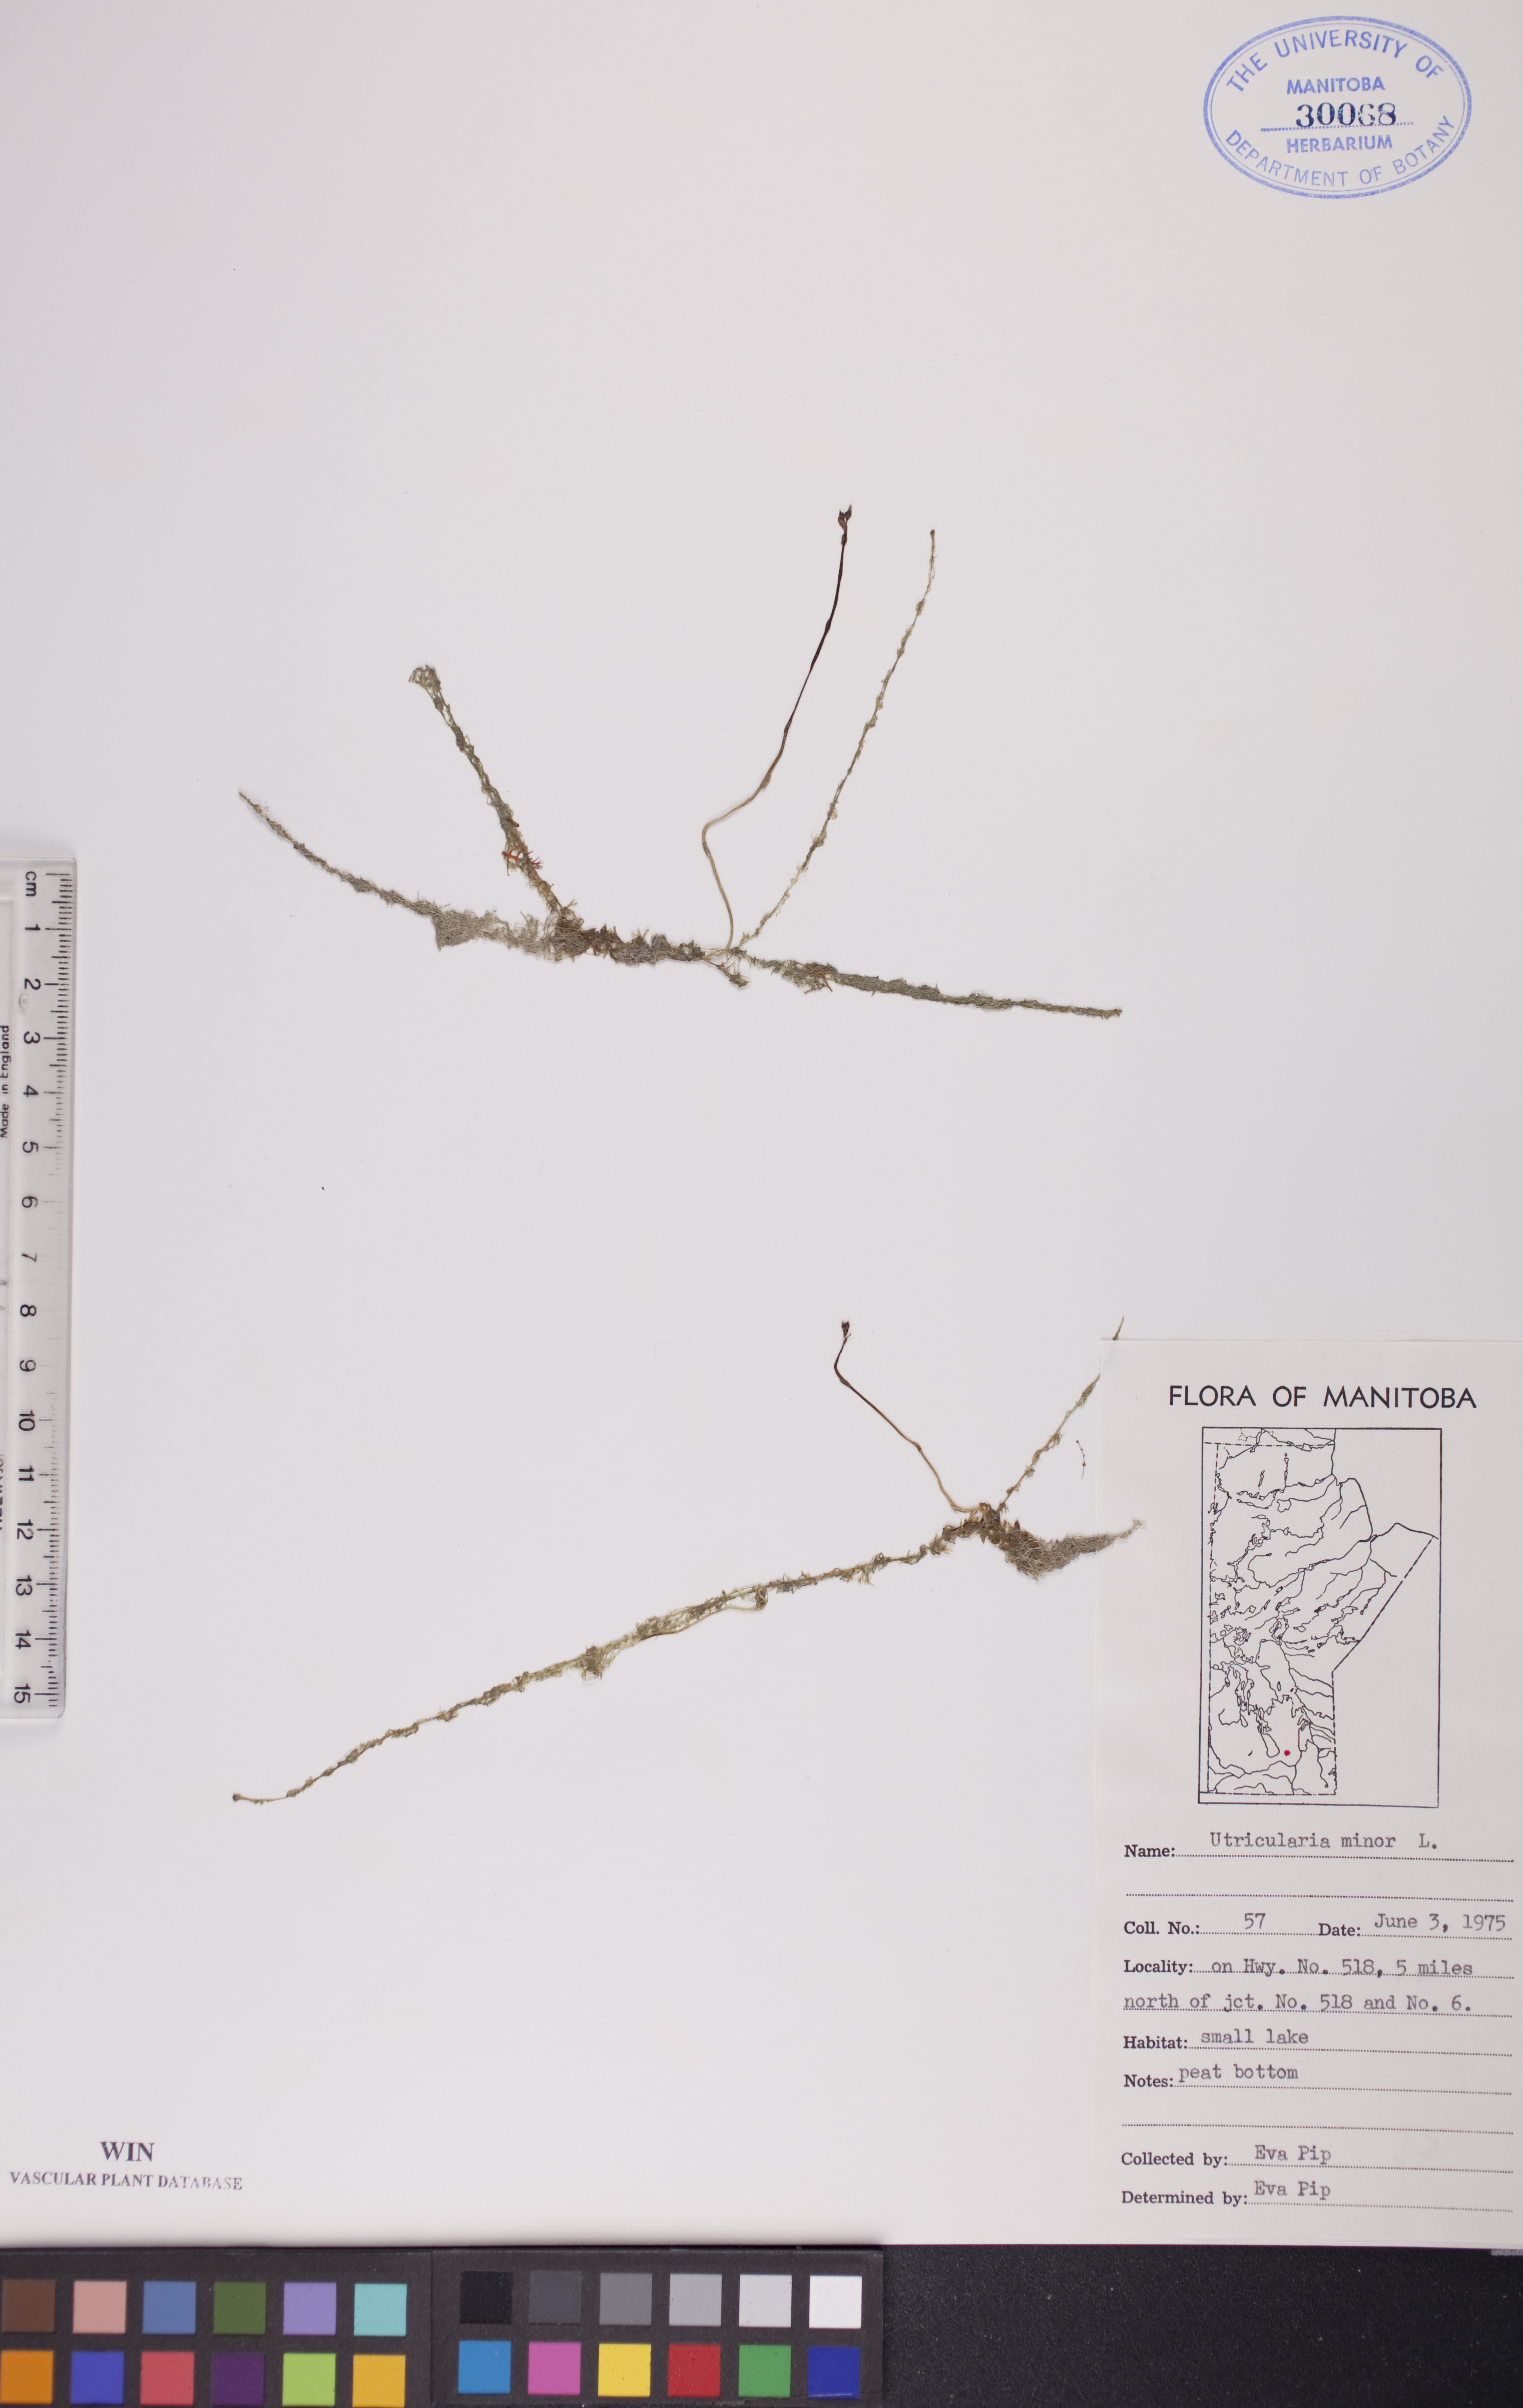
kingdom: Plantae
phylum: Tracheophyta
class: Magnoliopsida
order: Lamiales
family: Lentibulariaceae
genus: Utricularia
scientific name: Utricularia minor
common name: Lesser bladderwort
